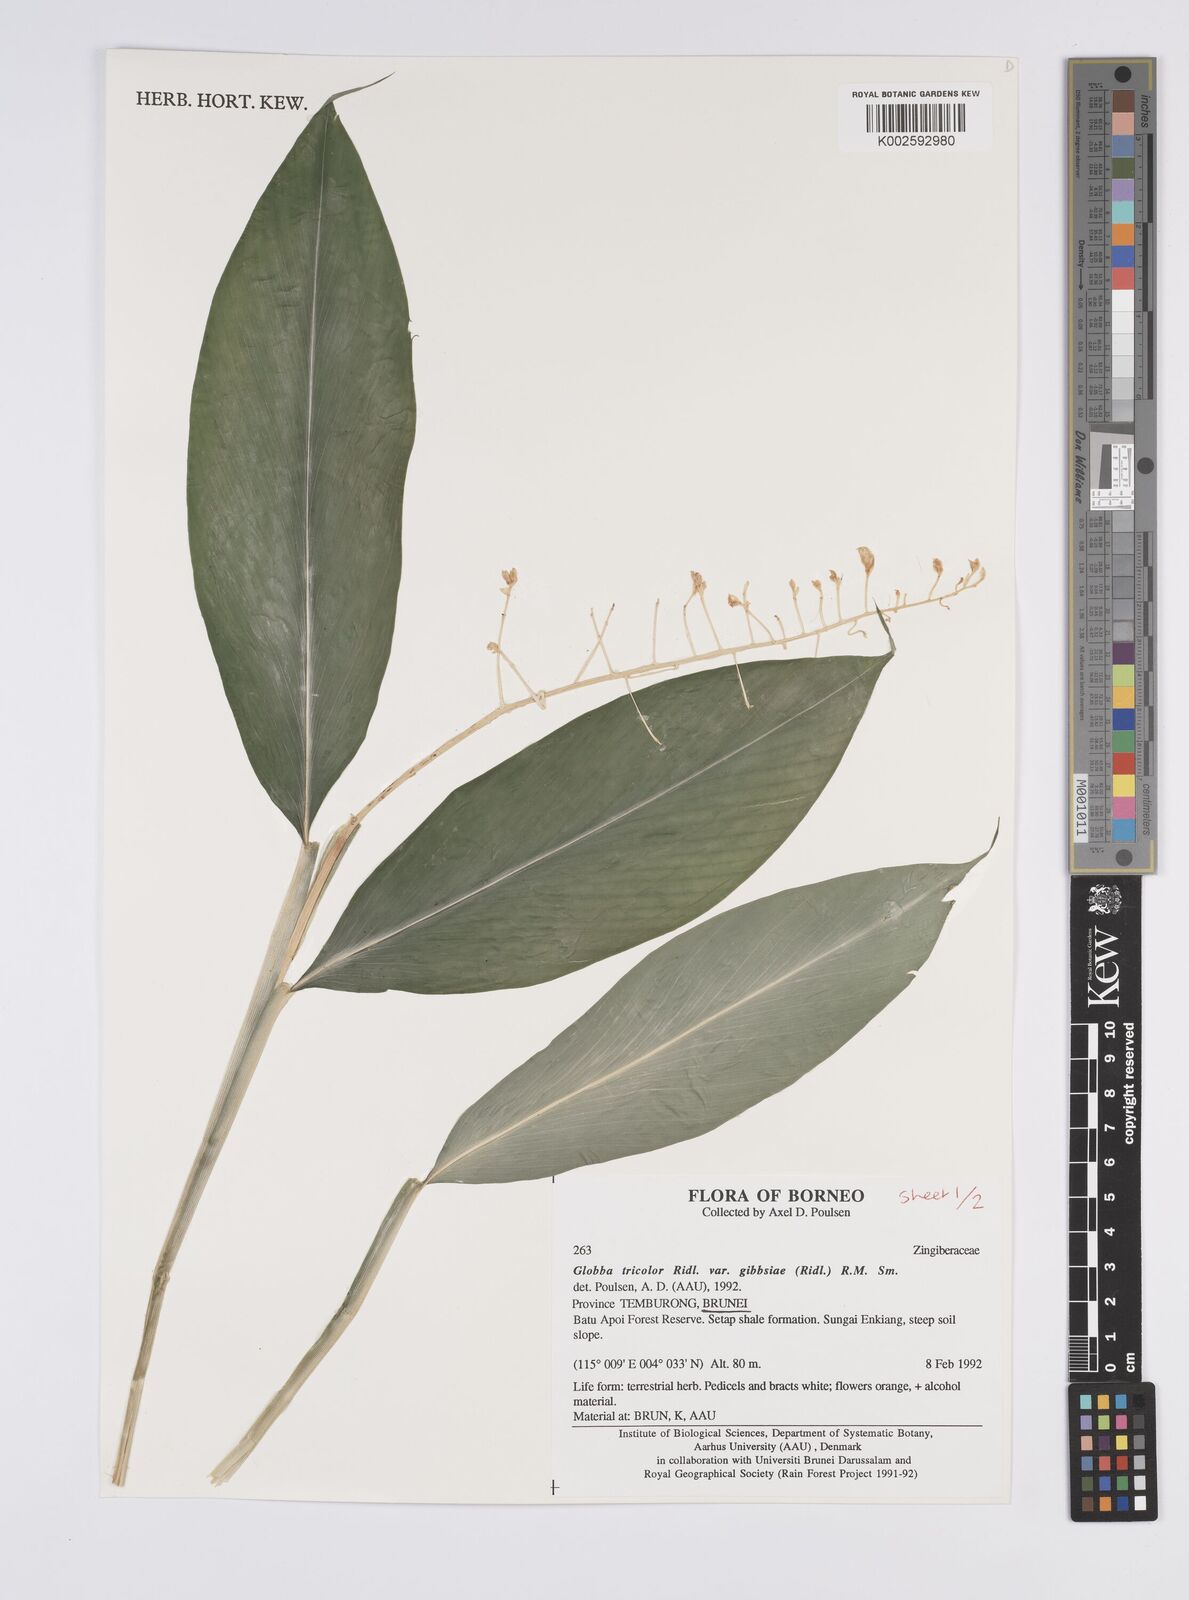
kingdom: Plantae
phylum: Tracheophyta
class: Liliopsida
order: Zingiberales
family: Zingiberaceae
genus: Globba
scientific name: Globba tricolor
